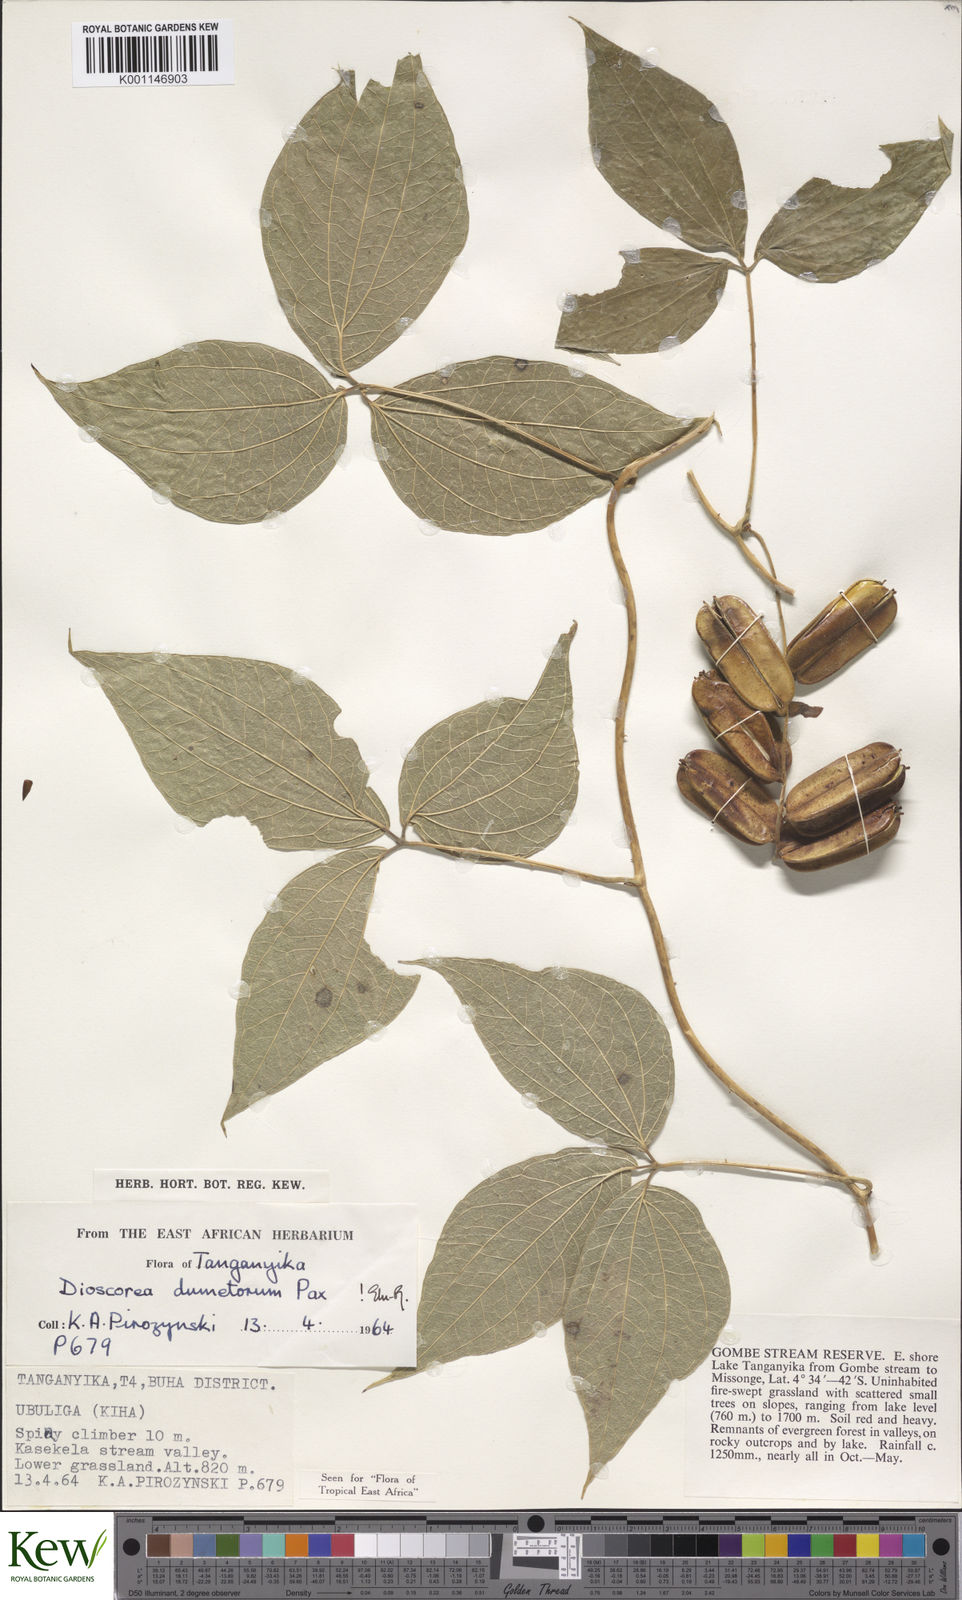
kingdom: Plantae
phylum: Tracheophyta
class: Liliopsida
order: Dioscoreales
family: Dioscoreaceae
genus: Dioscorea
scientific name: Dioscorea dumetorum
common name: African bitter yam
